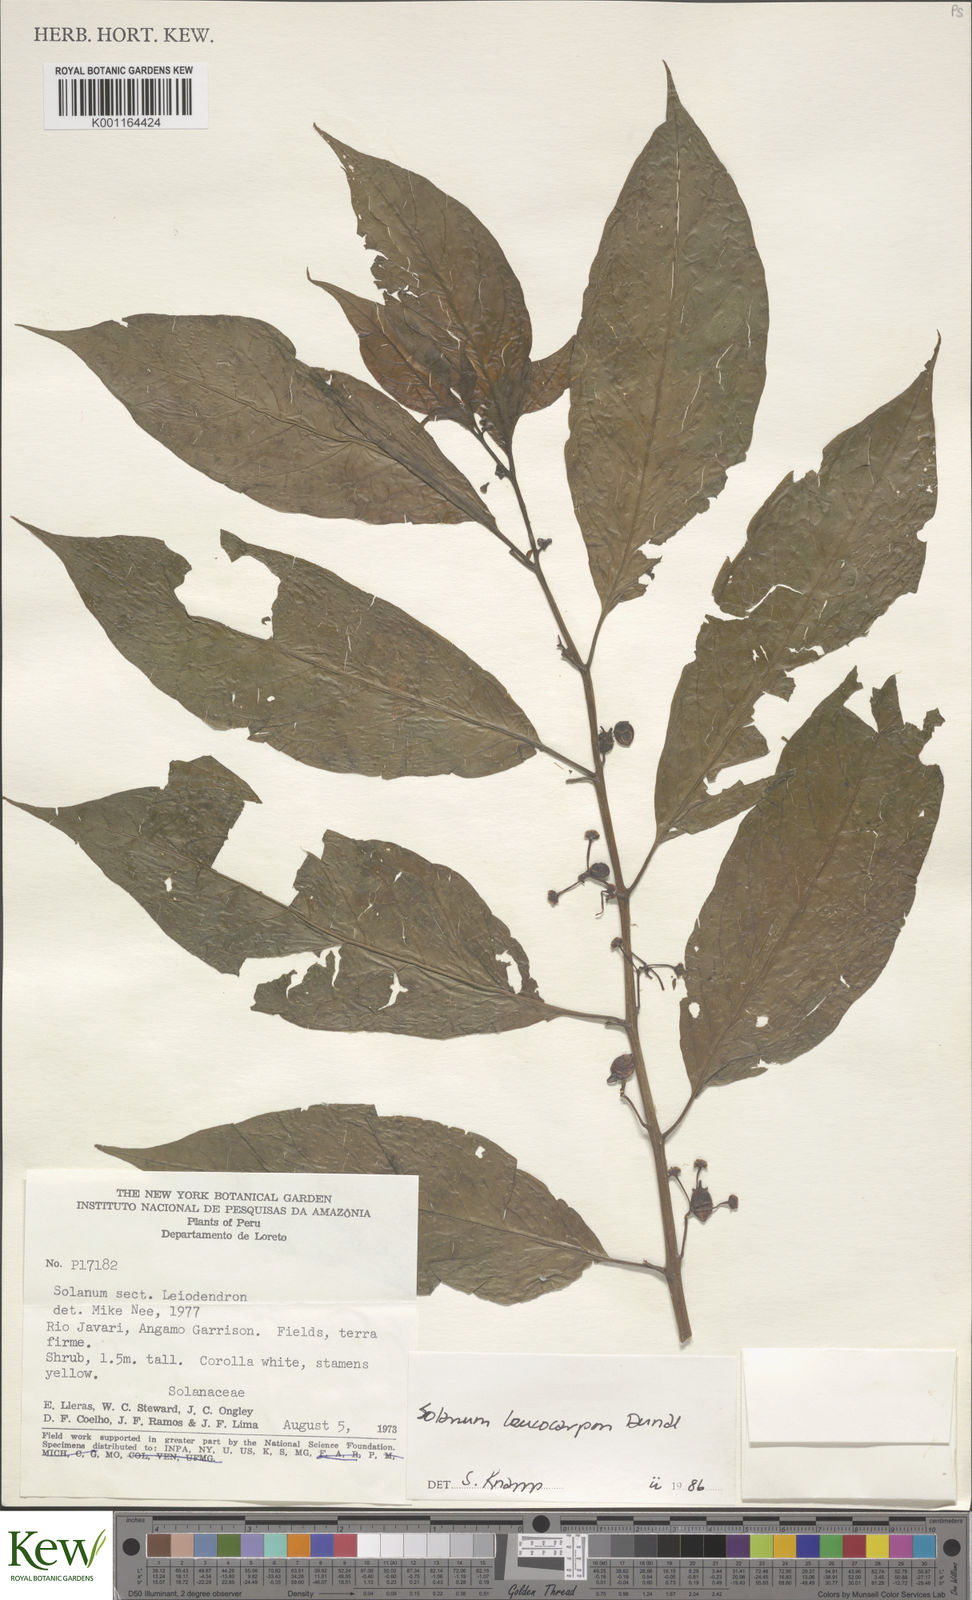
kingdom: Plantae
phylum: Tracheophyta
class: Magnoliopsida
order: Solanales
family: Solanaceae
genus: Solanum
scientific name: Solanum leucocarpon
